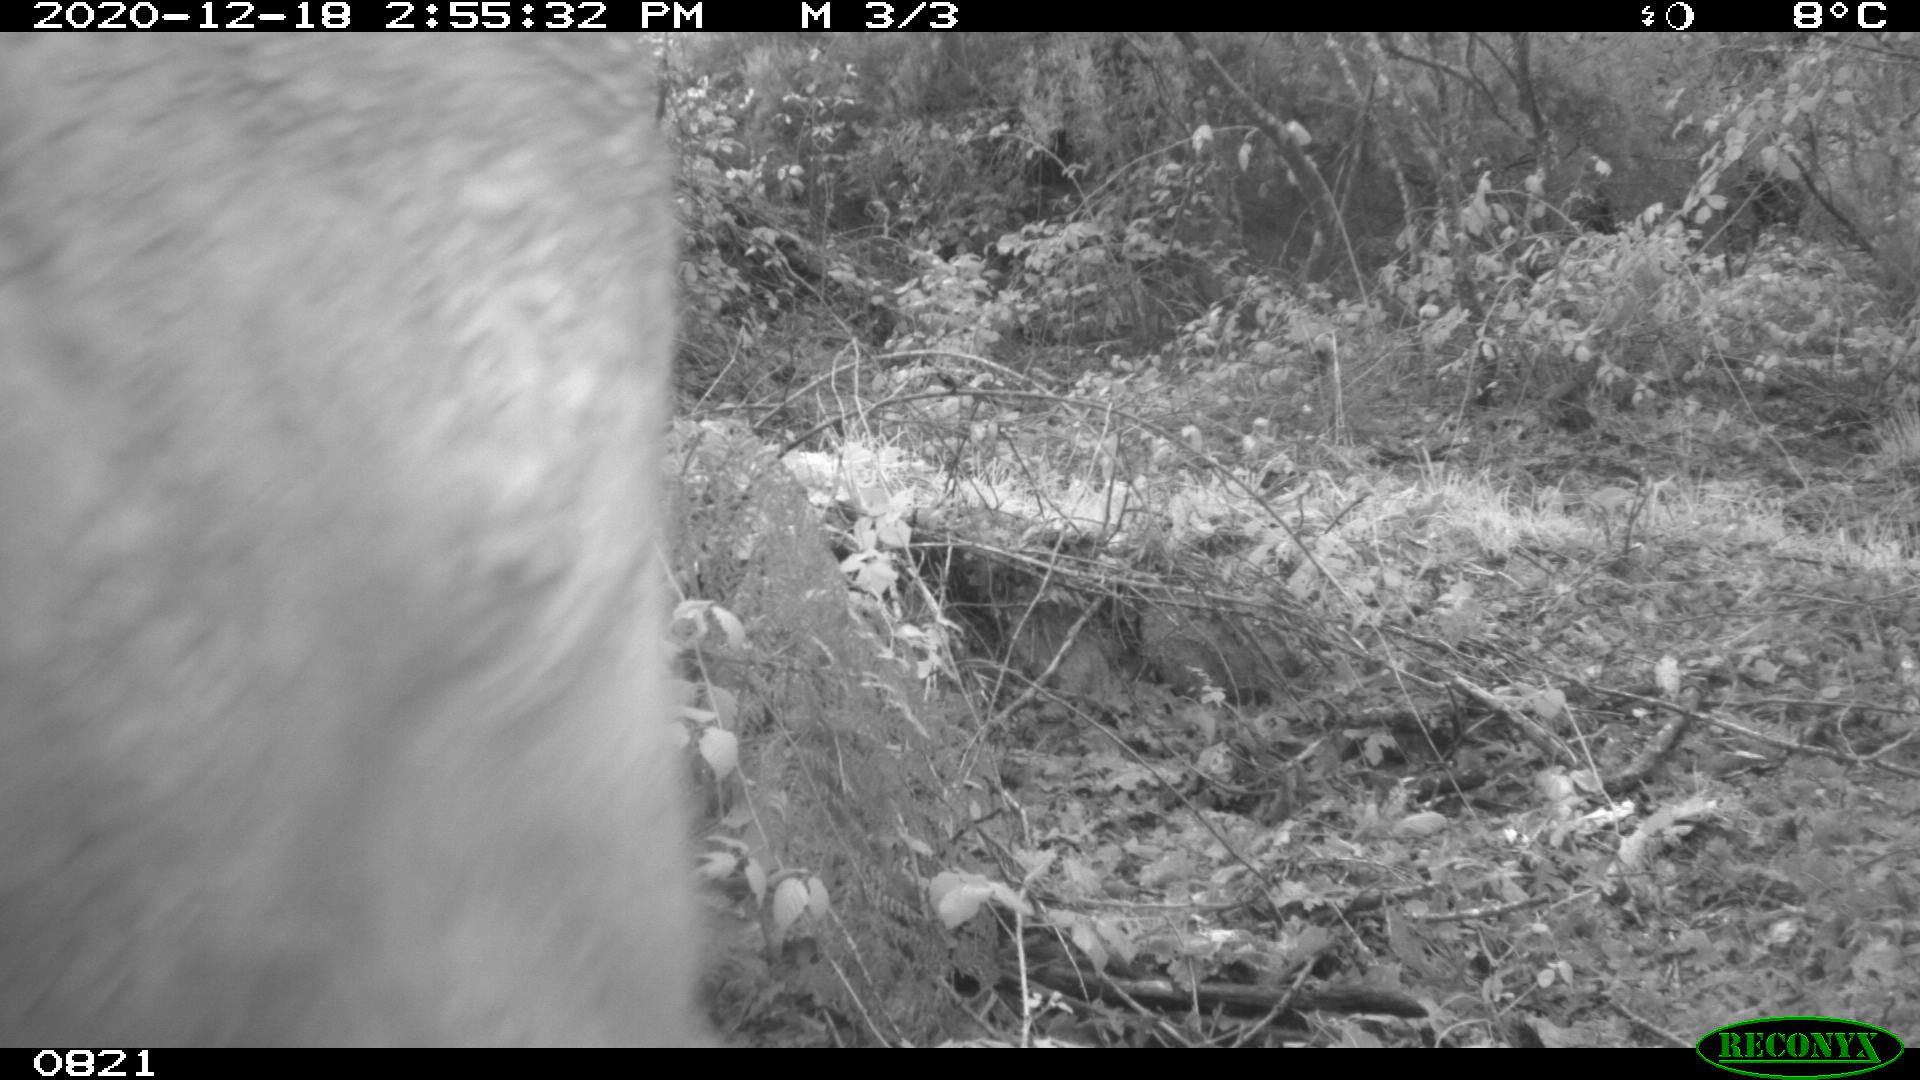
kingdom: Animalia
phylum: Chordata
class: Mammalia
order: Artiodactyla
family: Bovidae
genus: Bos
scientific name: Bos taurus
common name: Domesticated cattle
